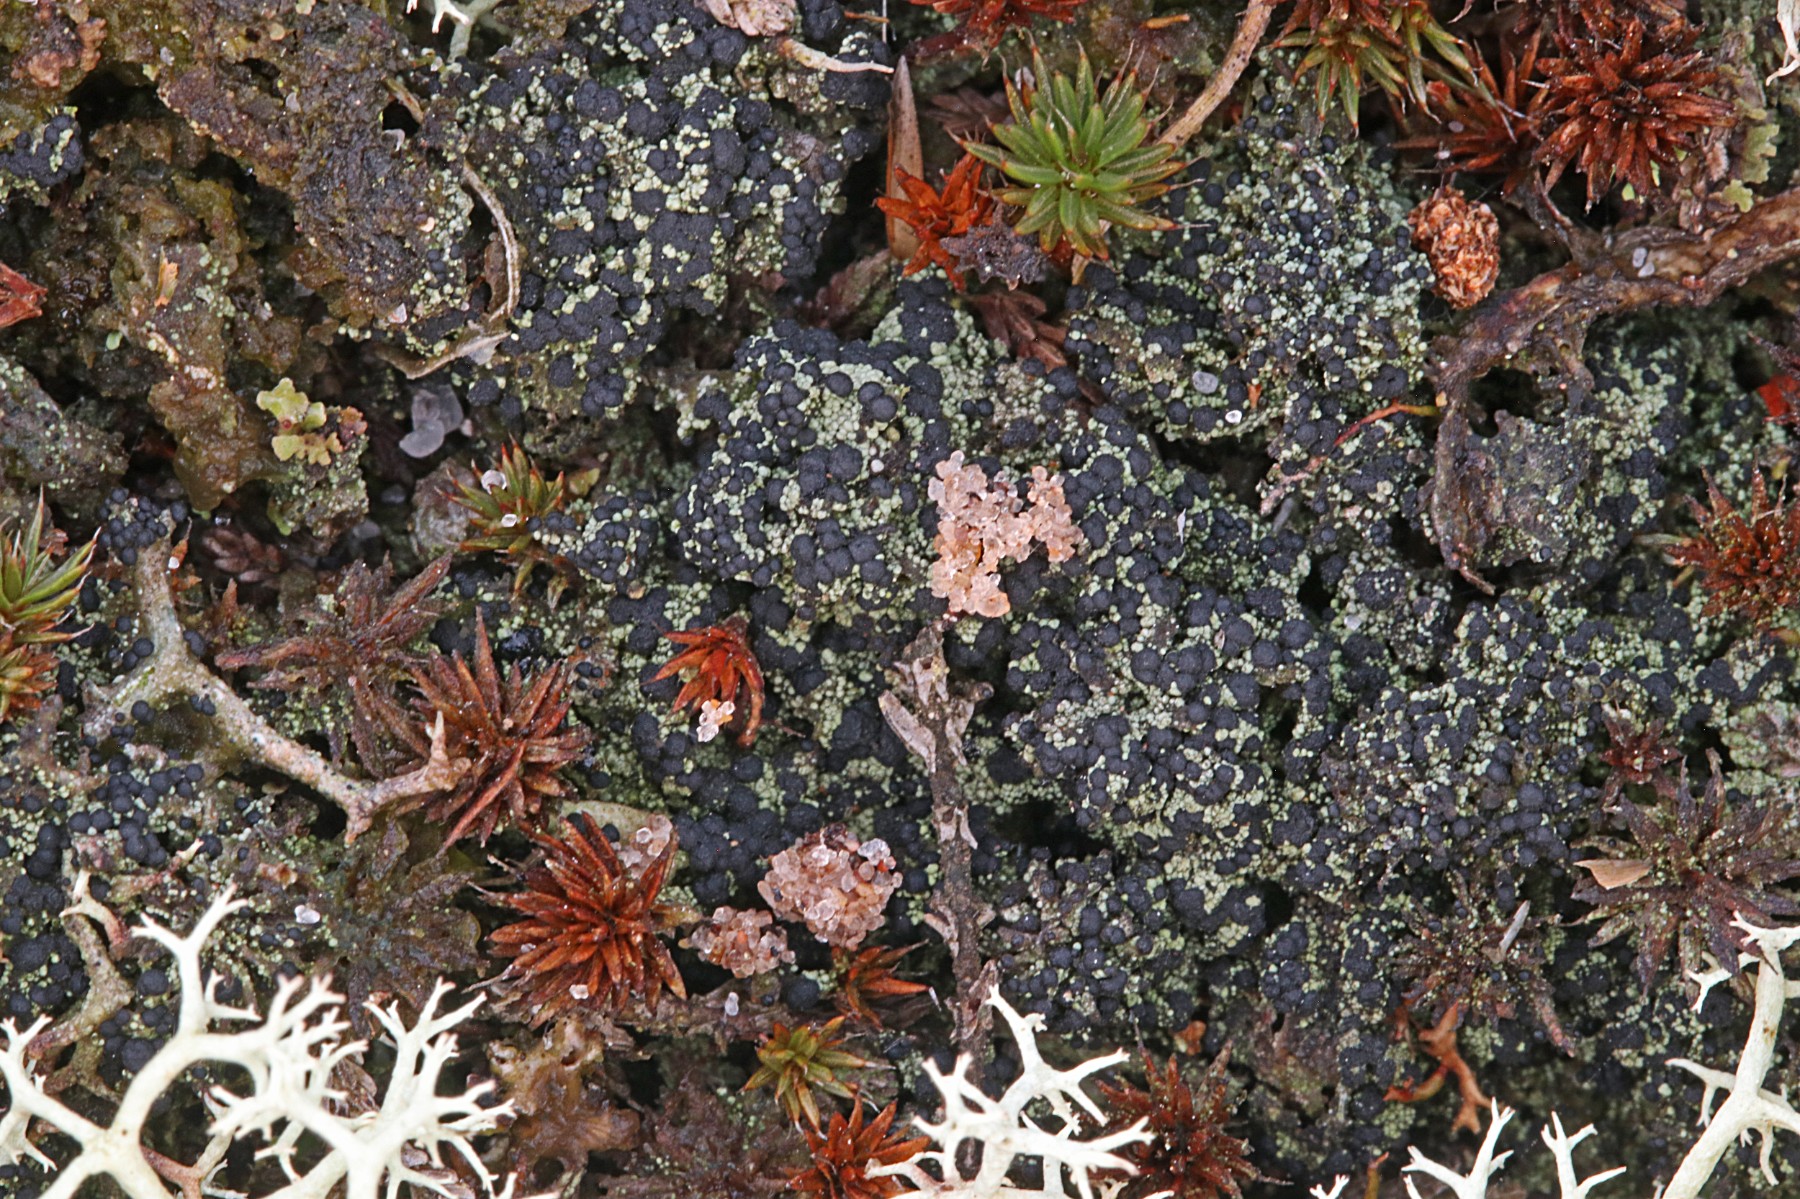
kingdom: Fungi
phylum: Ascomycota
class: Lecanoromycetes
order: Lecanorales
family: Byssolomataceae
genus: Micarea
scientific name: Micarea lignaria
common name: tørve-knaplav
